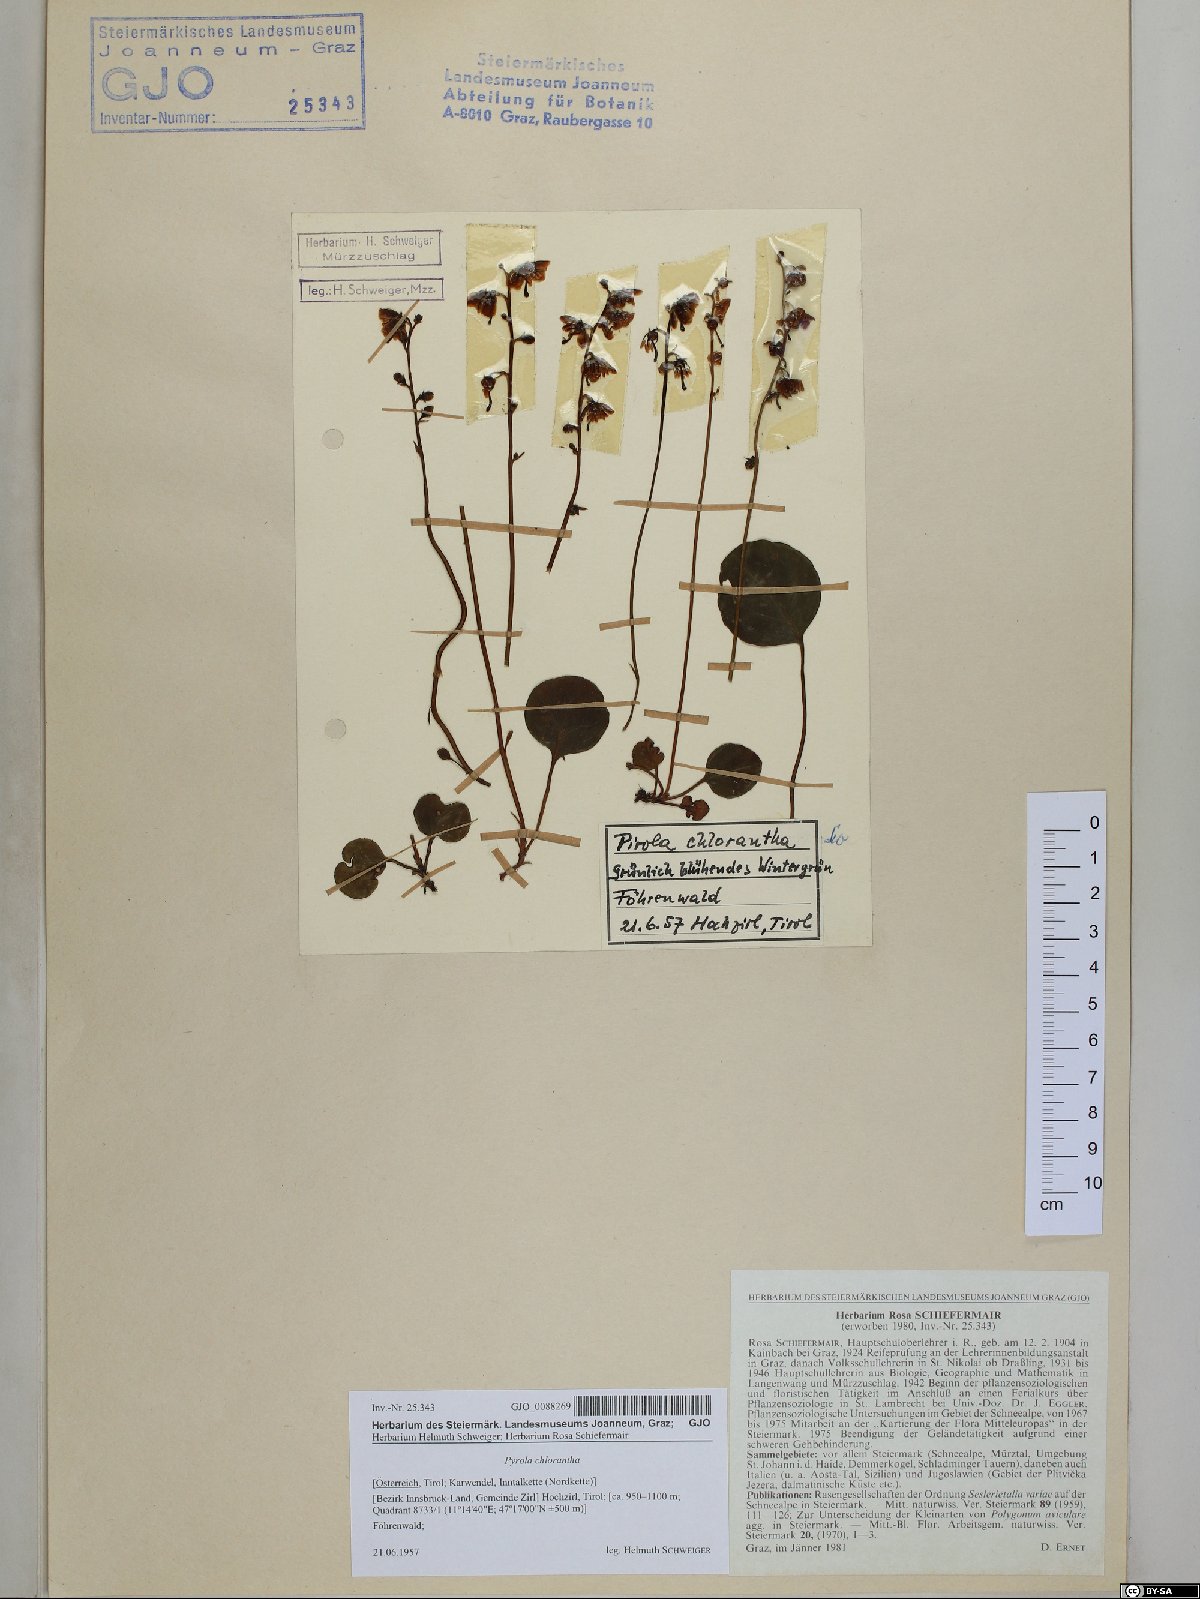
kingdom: Plantae
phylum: Tracheophyta
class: Magnoliopsida
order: Ericales
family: Ericaceae
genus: Pyrola
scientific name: Pyrola chlorantha
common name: Green wintergreen
